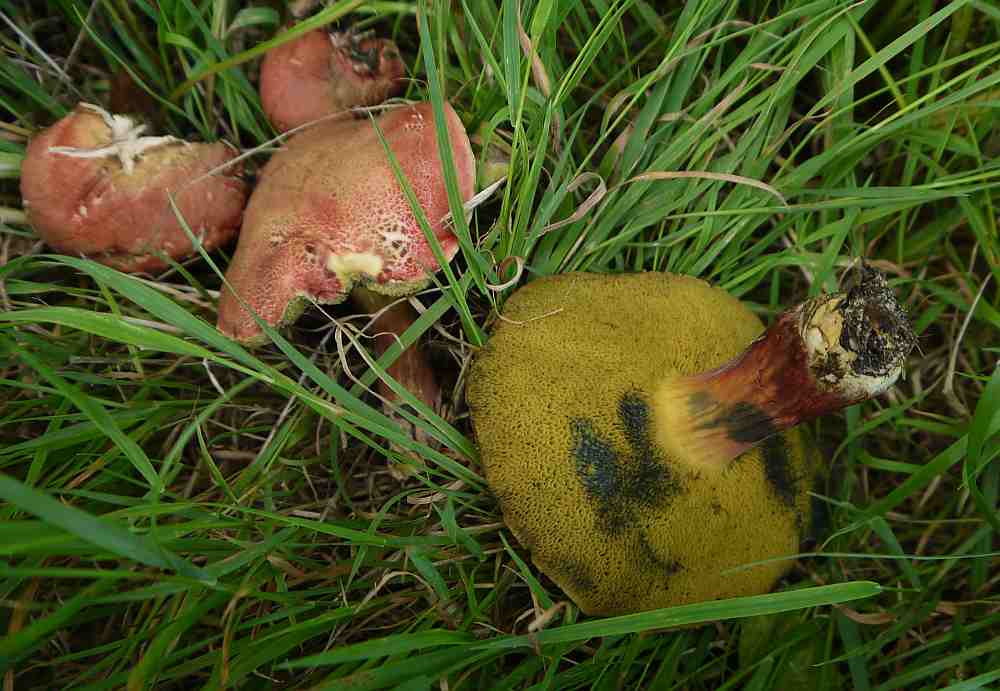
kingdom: Fungi
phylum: Basidiomycota
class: Agaricomycetes
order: Boletales
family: Boletaceae
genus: Hortiboletus
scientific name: Hortiboletus rubellus
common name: blodrød rørhat
